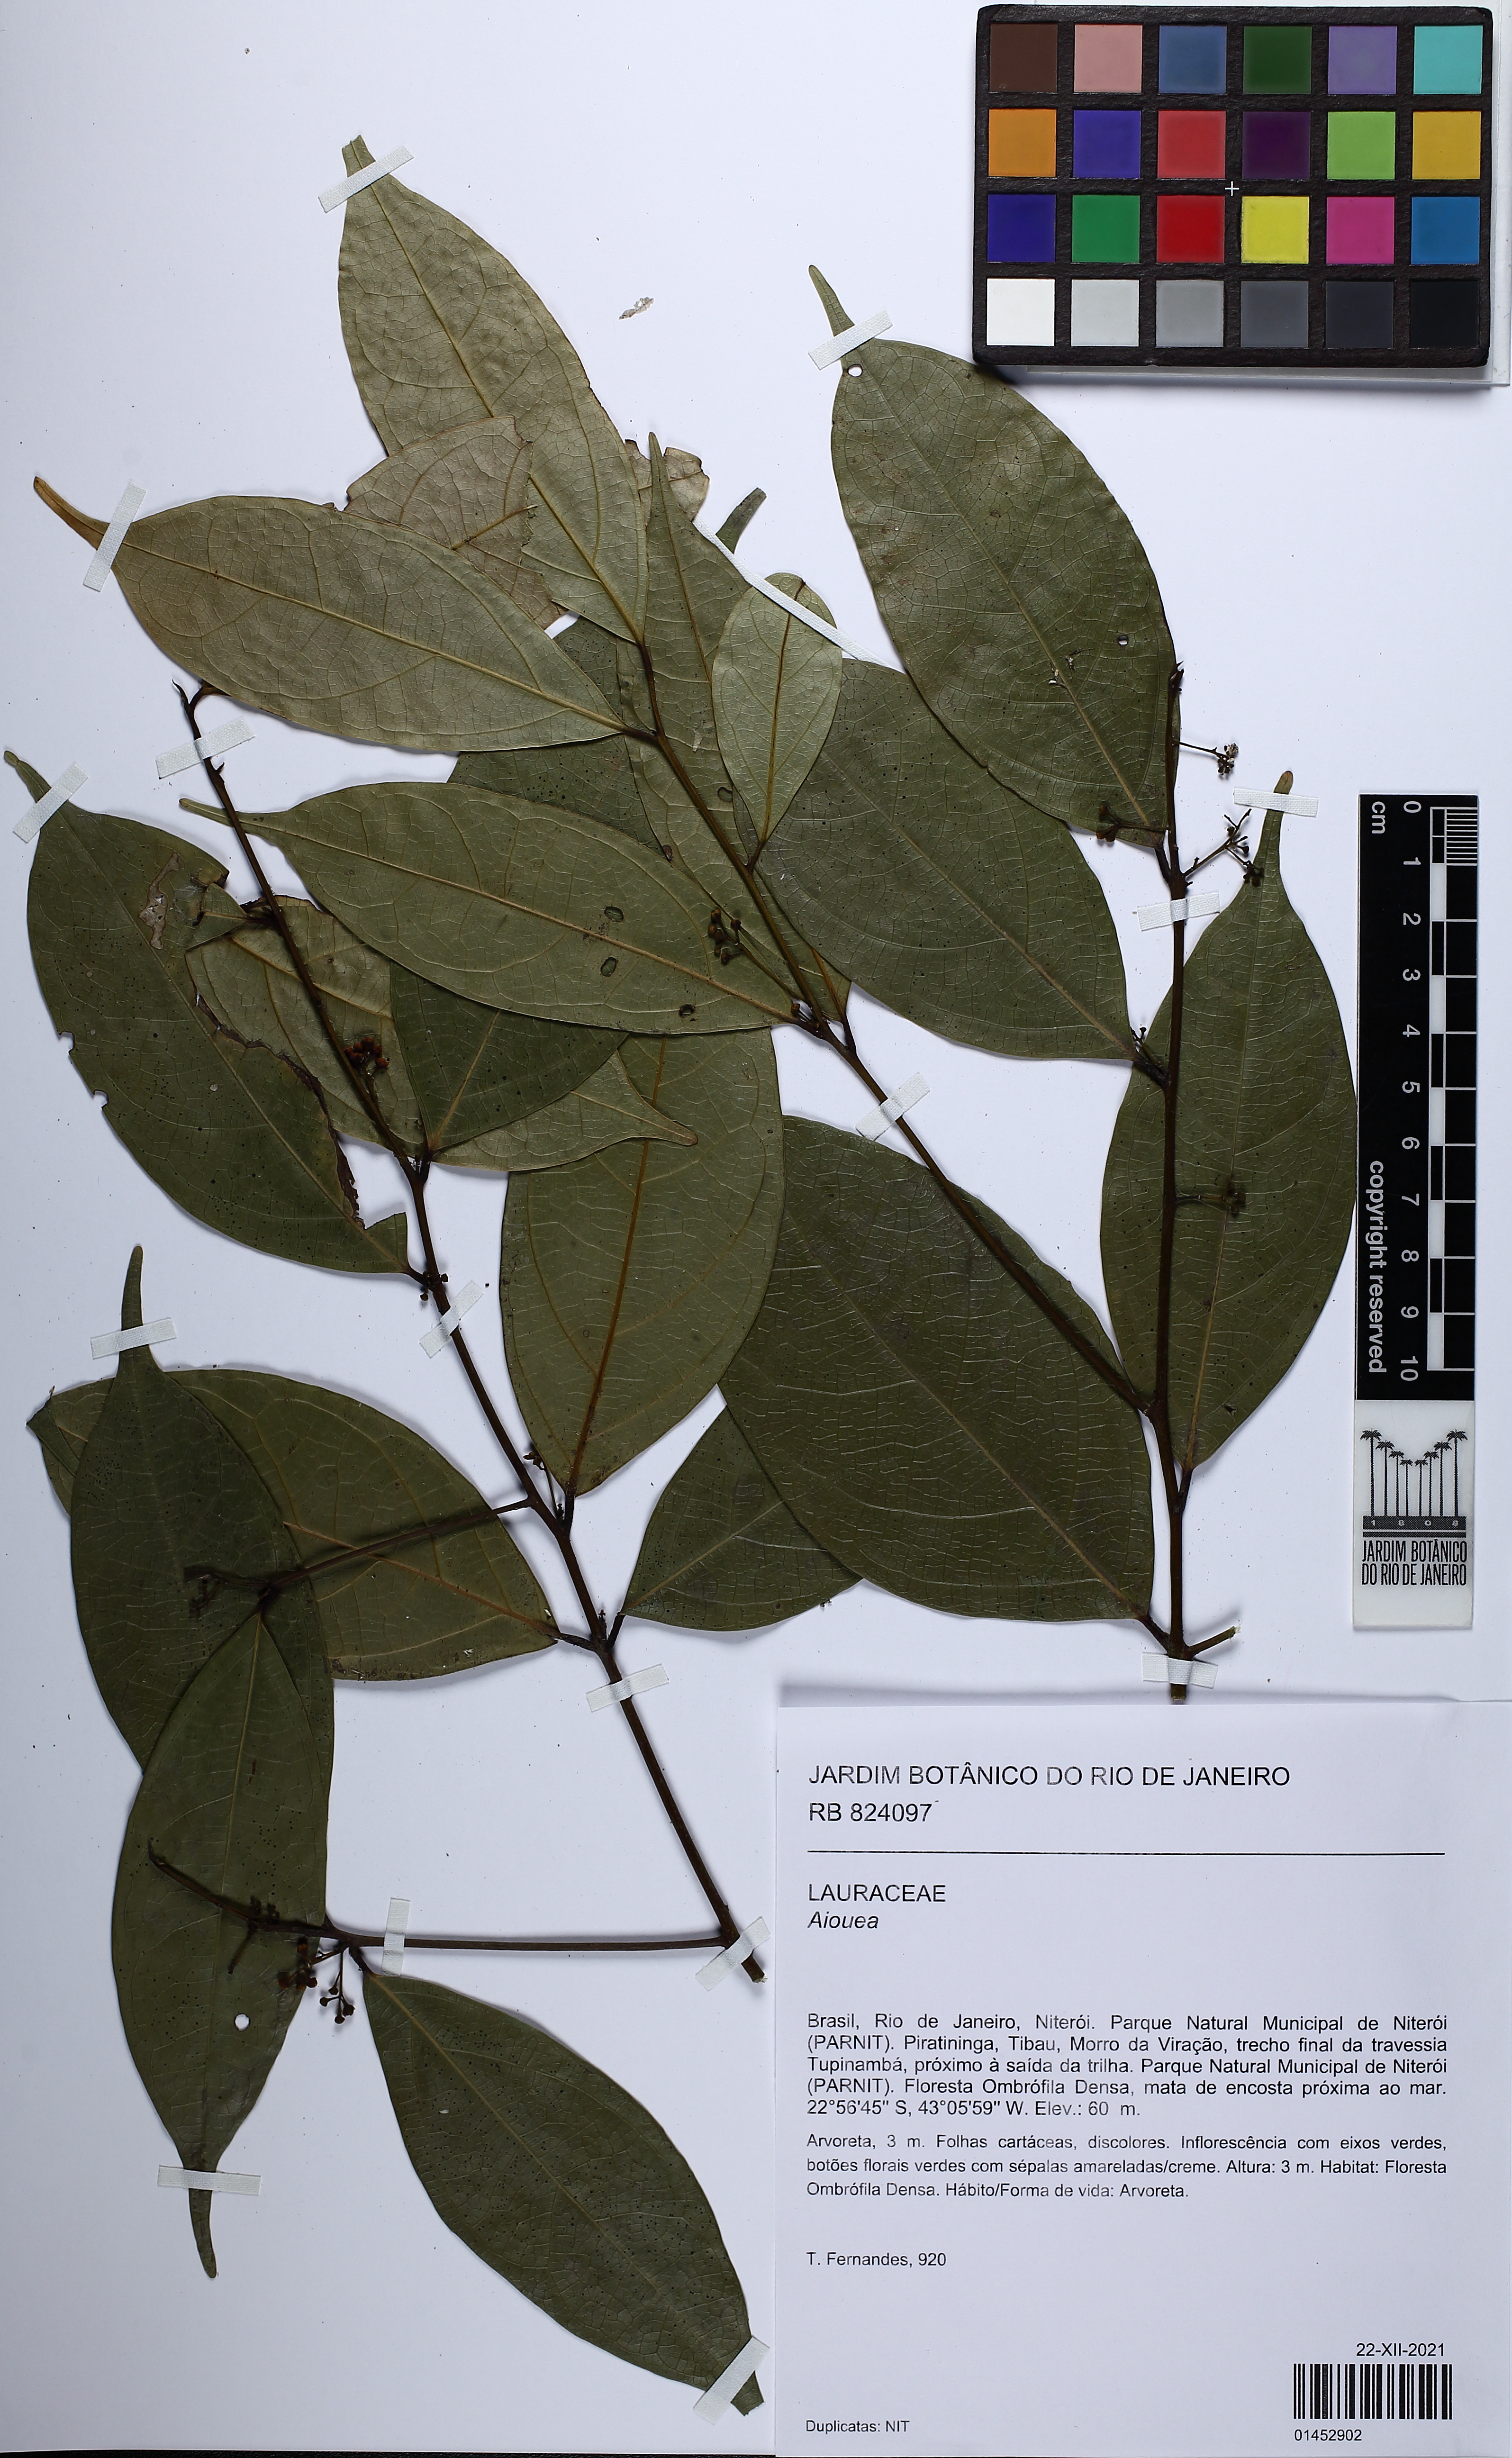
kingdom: Plantae
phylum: Tracheophyta
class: Magnoliopsida
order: Laurales
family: Lauraceae
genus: Aiouea
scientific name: Aiouea
